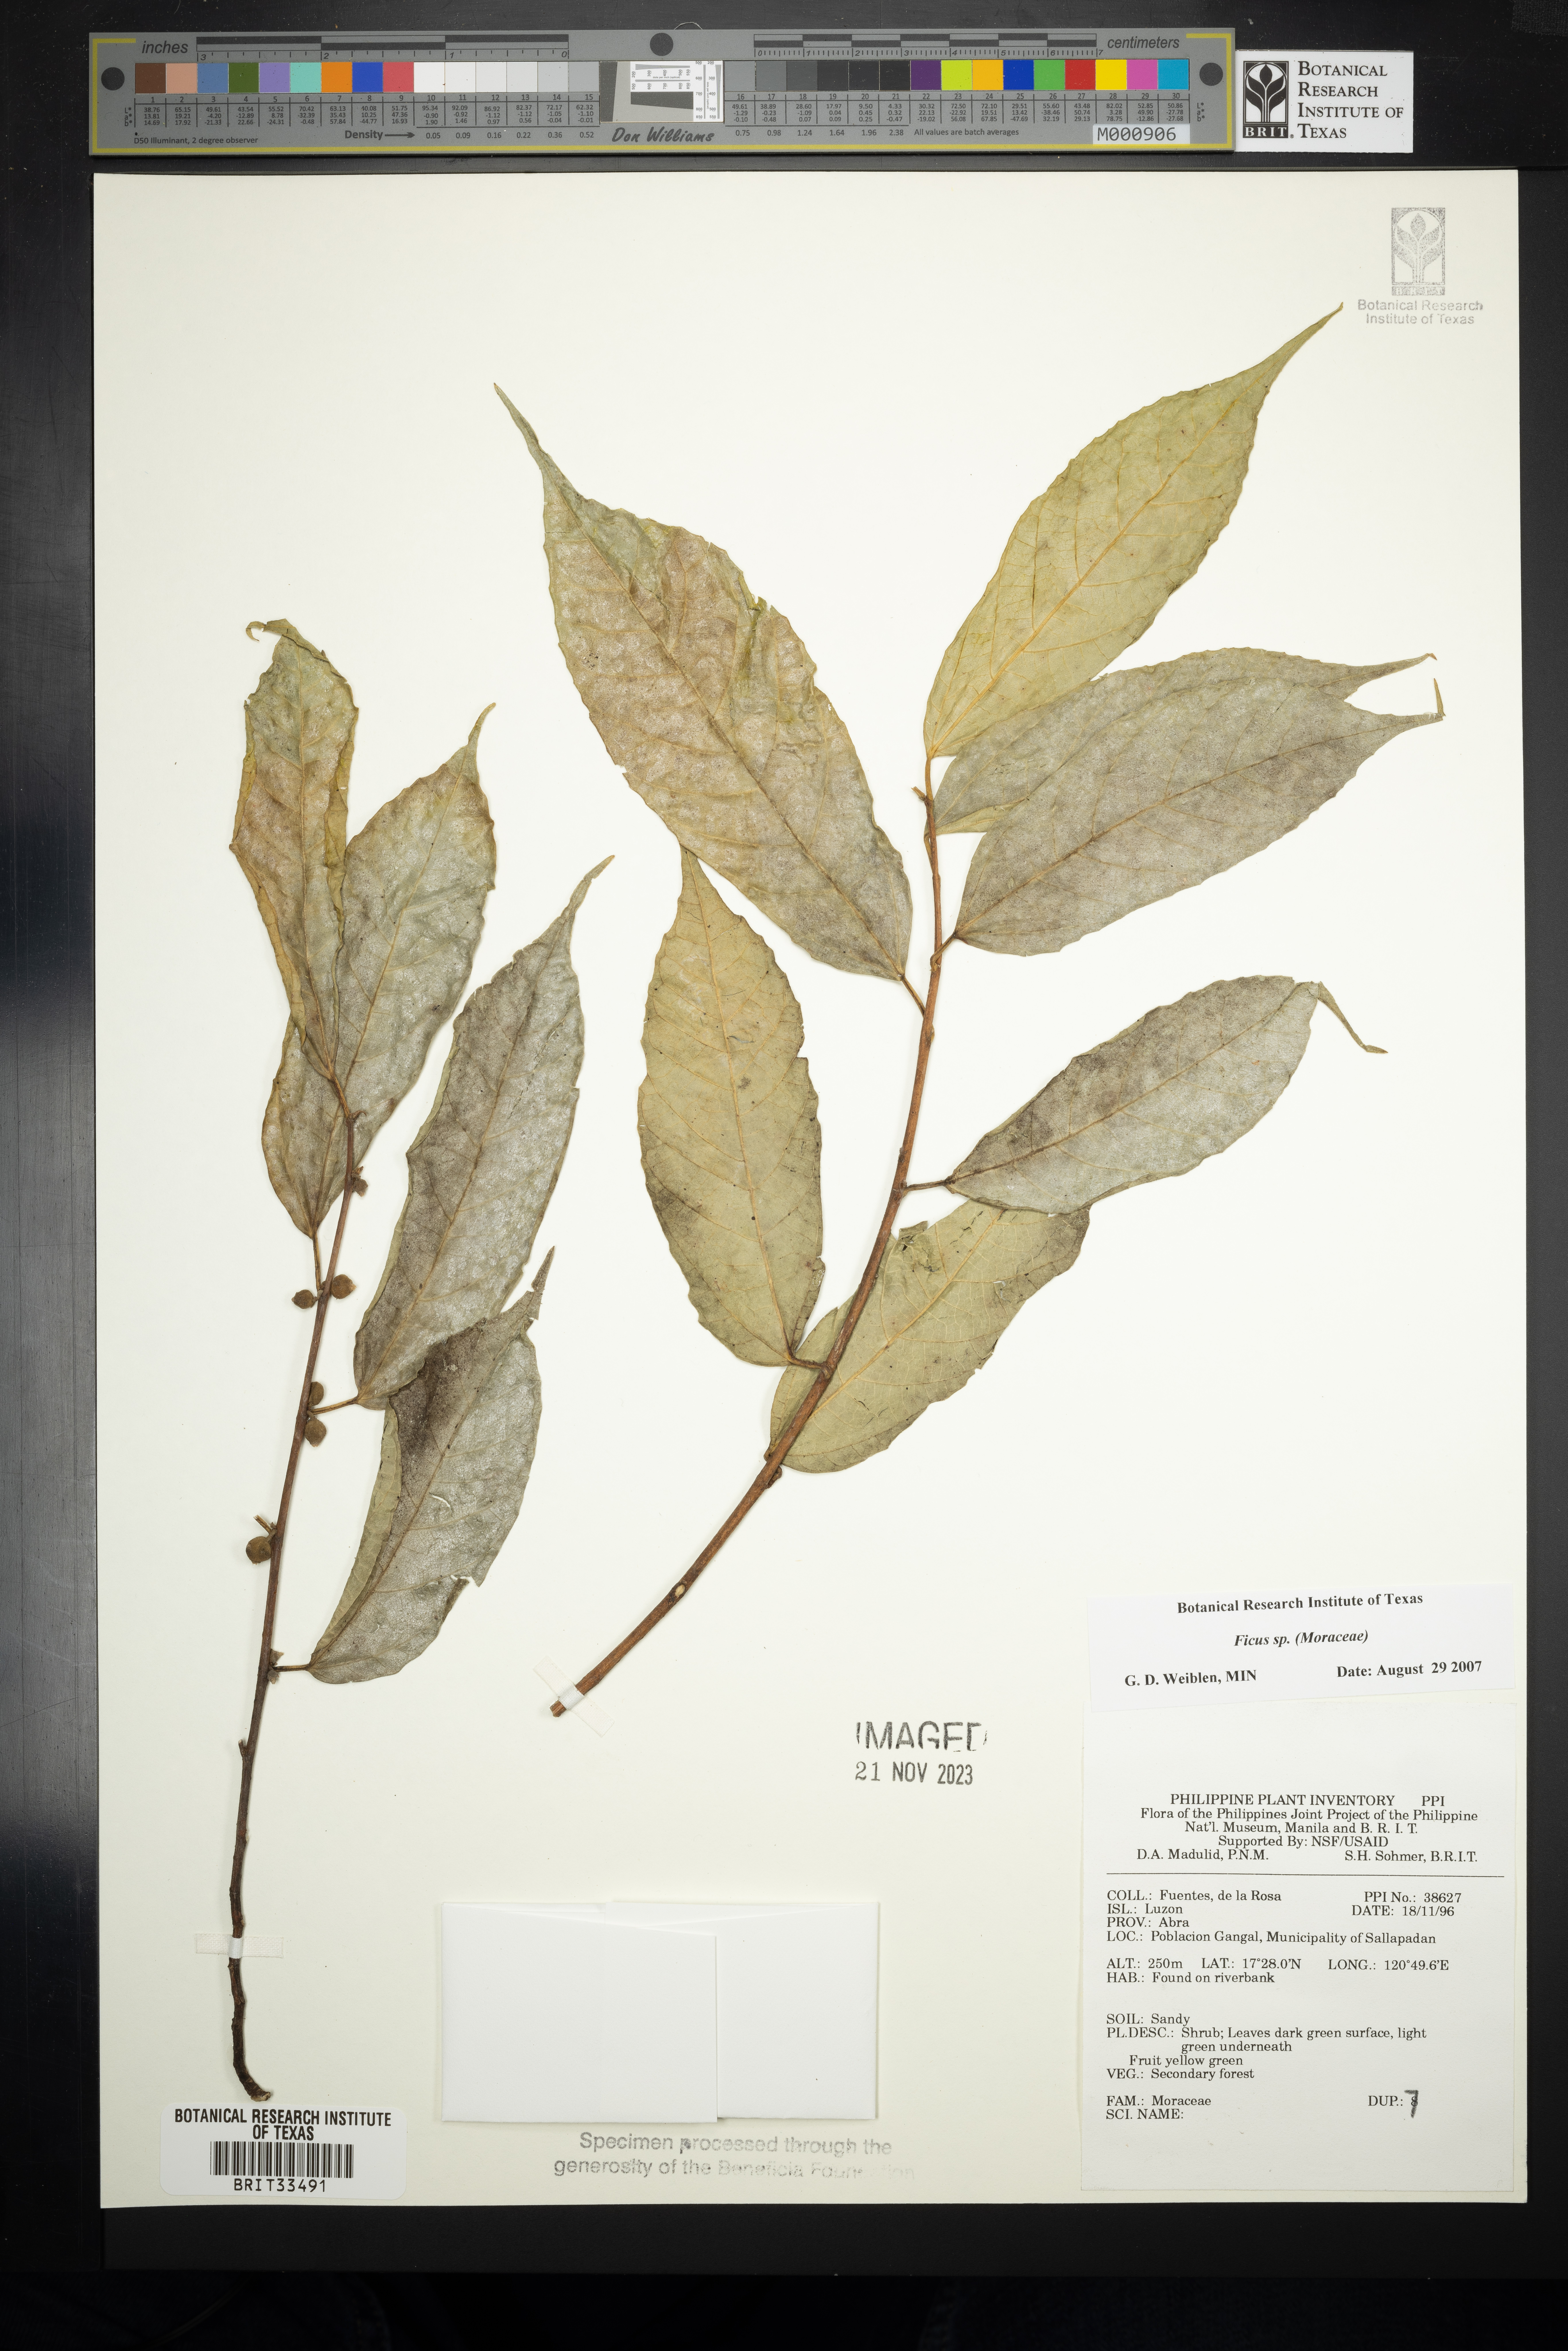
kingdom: Plantae
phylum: Tracheophyta
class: Magnoliopsida
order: Rosales
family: Moraceae
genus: Ficus
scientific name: Ficus
